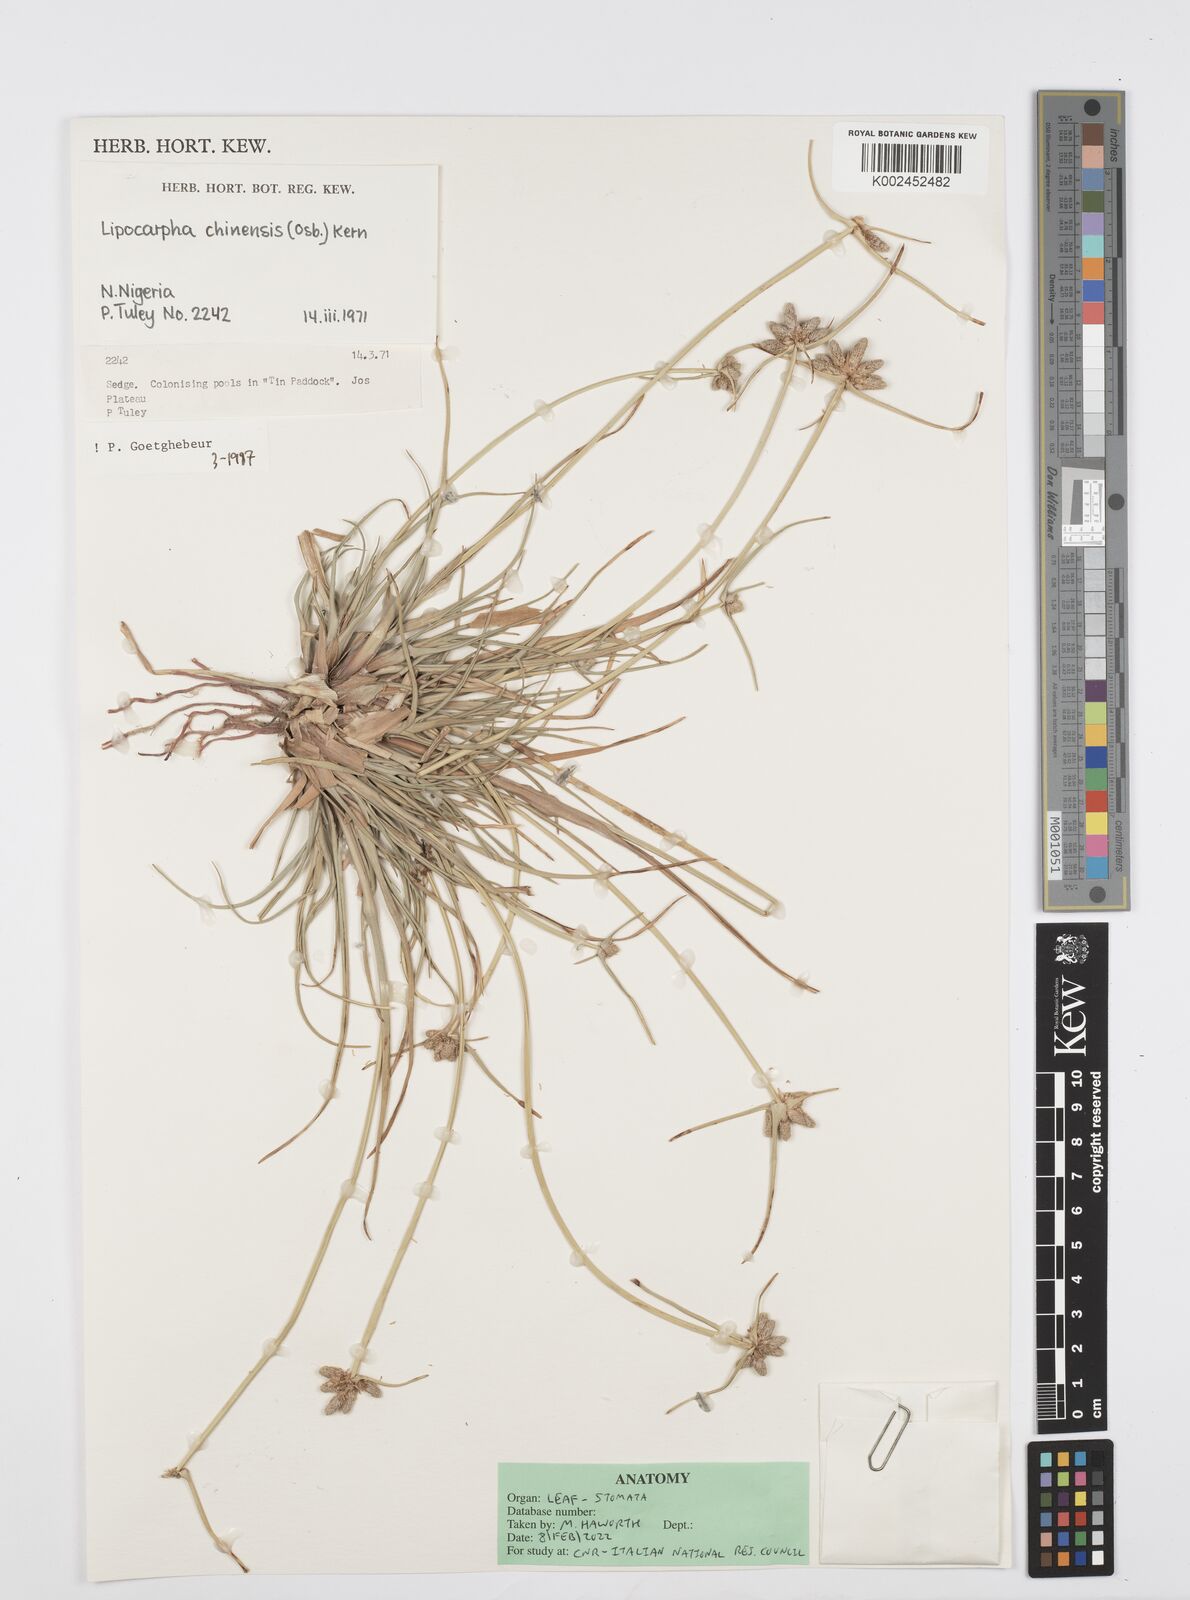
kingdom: Plantae
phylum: Tracheophyta
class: Liliopsida
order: Poales
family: Cyperaceae
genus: Cyperus
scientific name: Cyperus albescens
